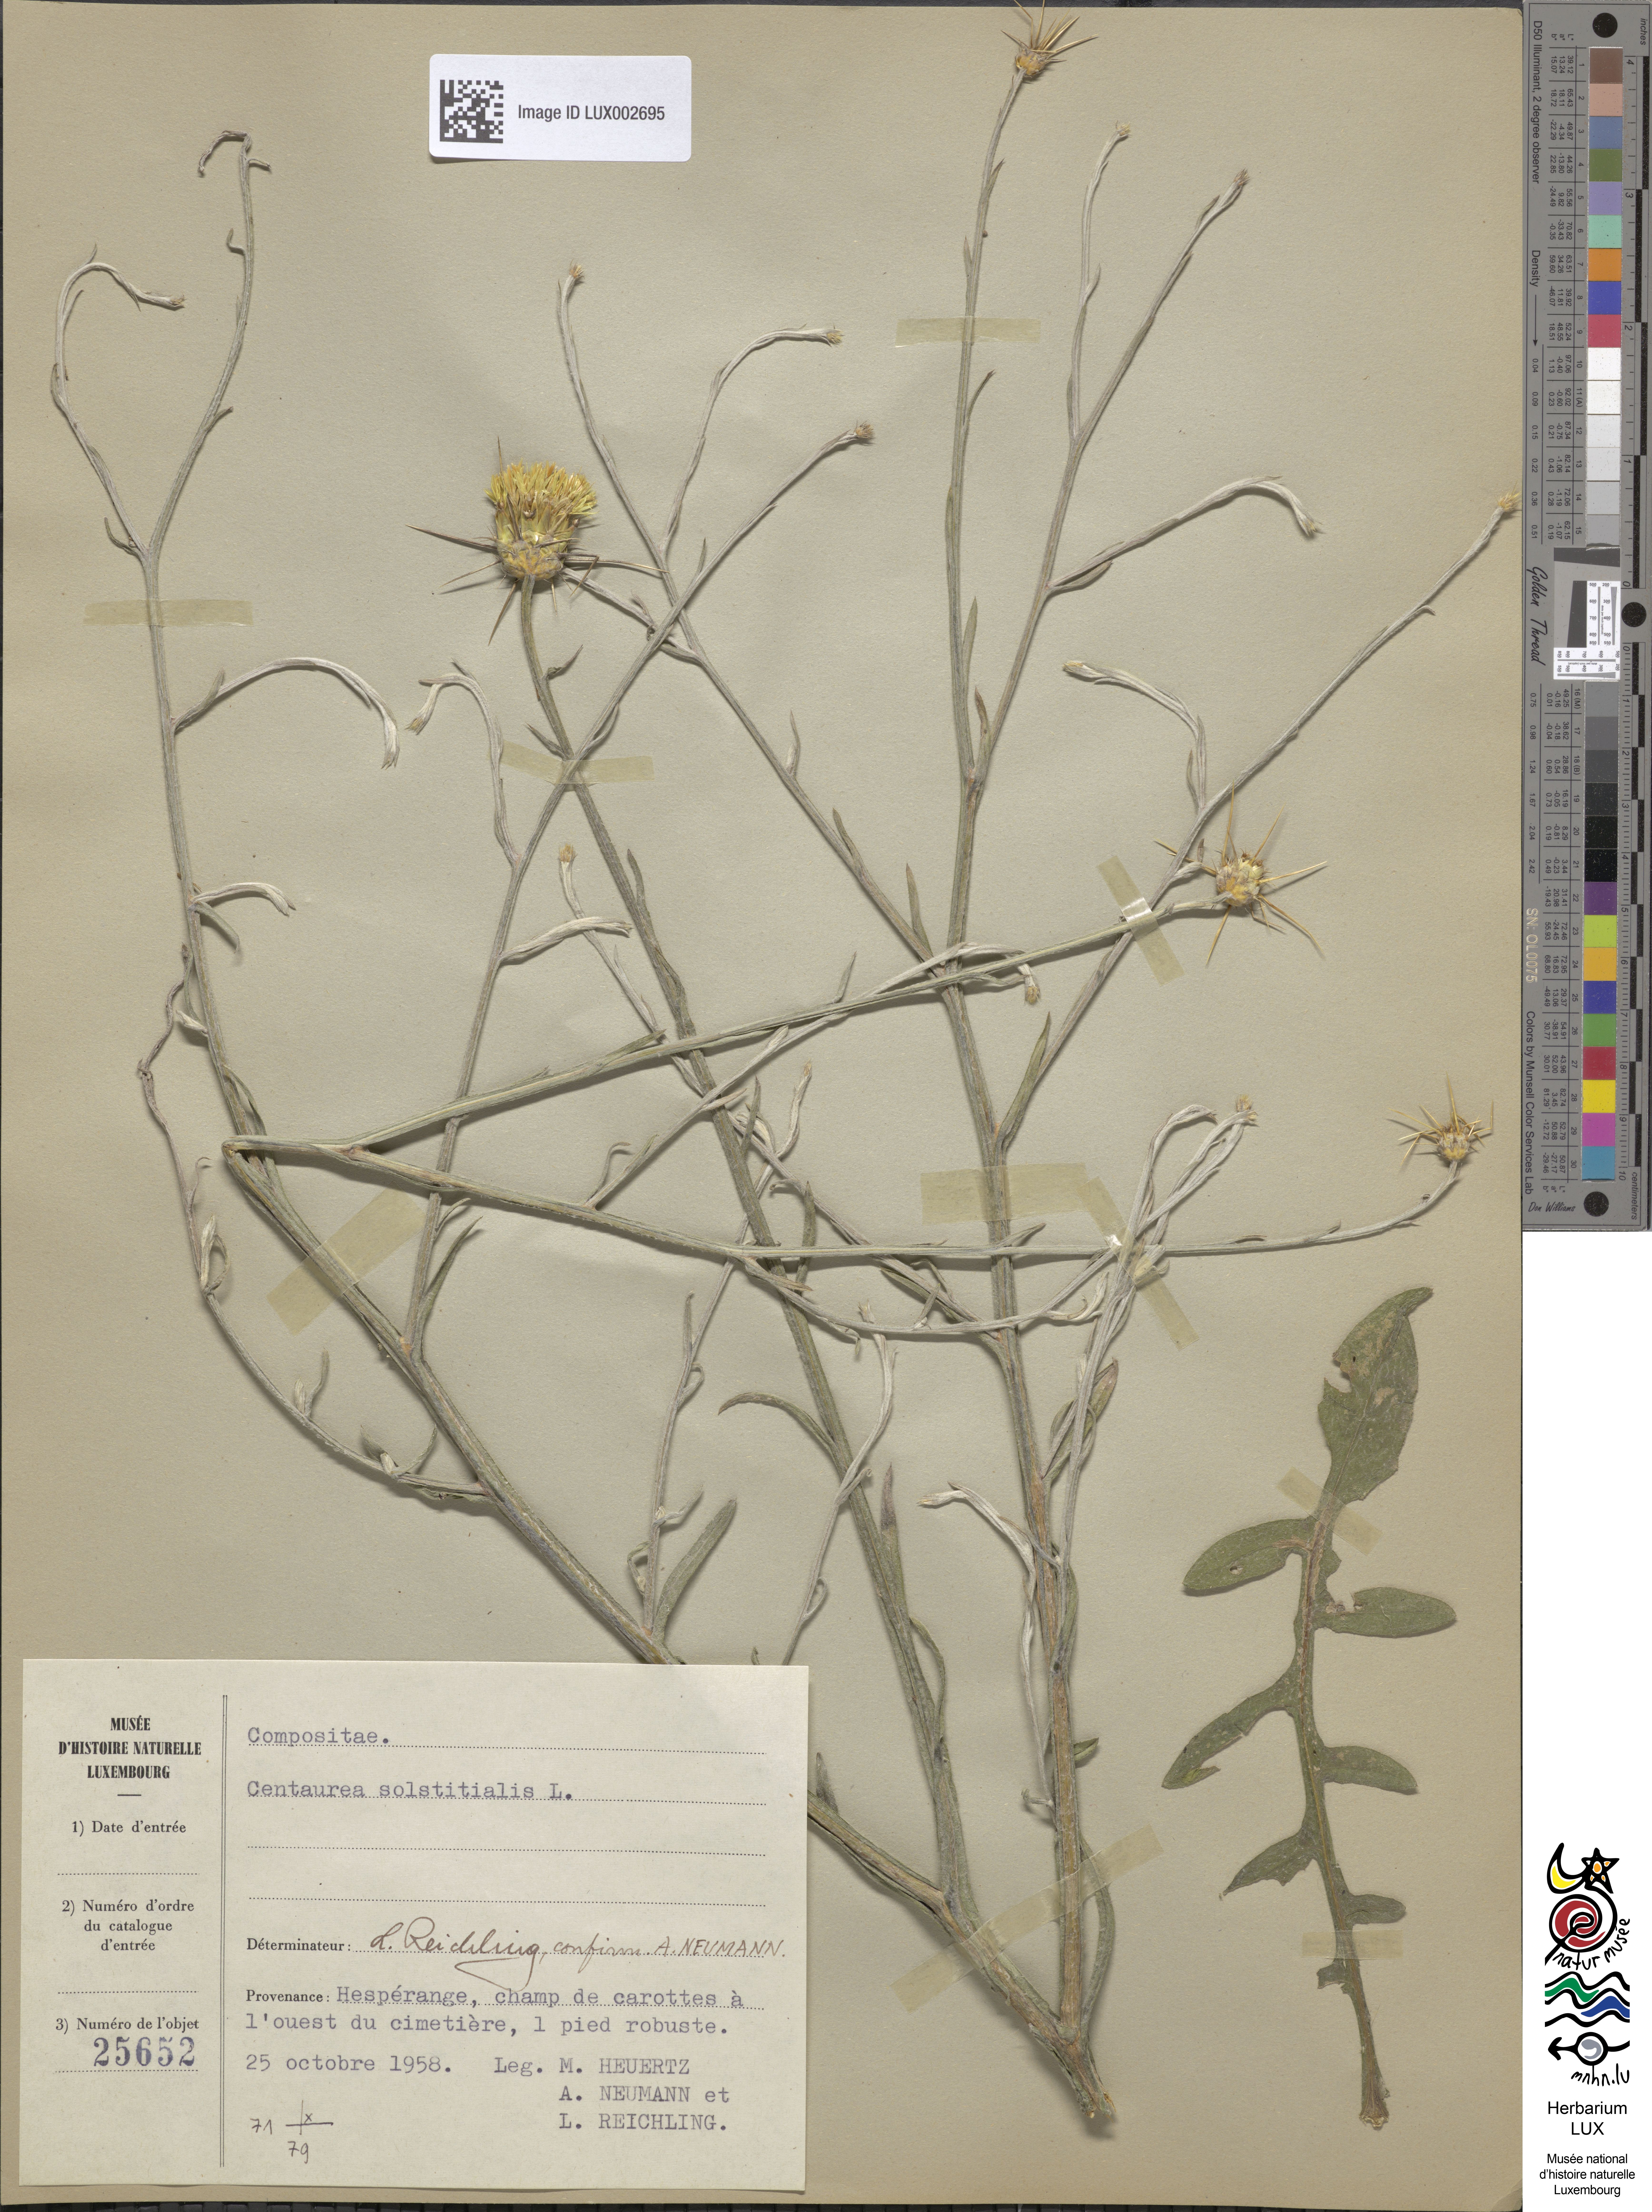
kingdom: Plantae
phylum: Tracheophyta
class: Magnoliopsida
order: Asterales
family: Asteraceae
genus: Centaurea
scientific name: Centaurea solstitialis
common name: Yellow star-thistle
